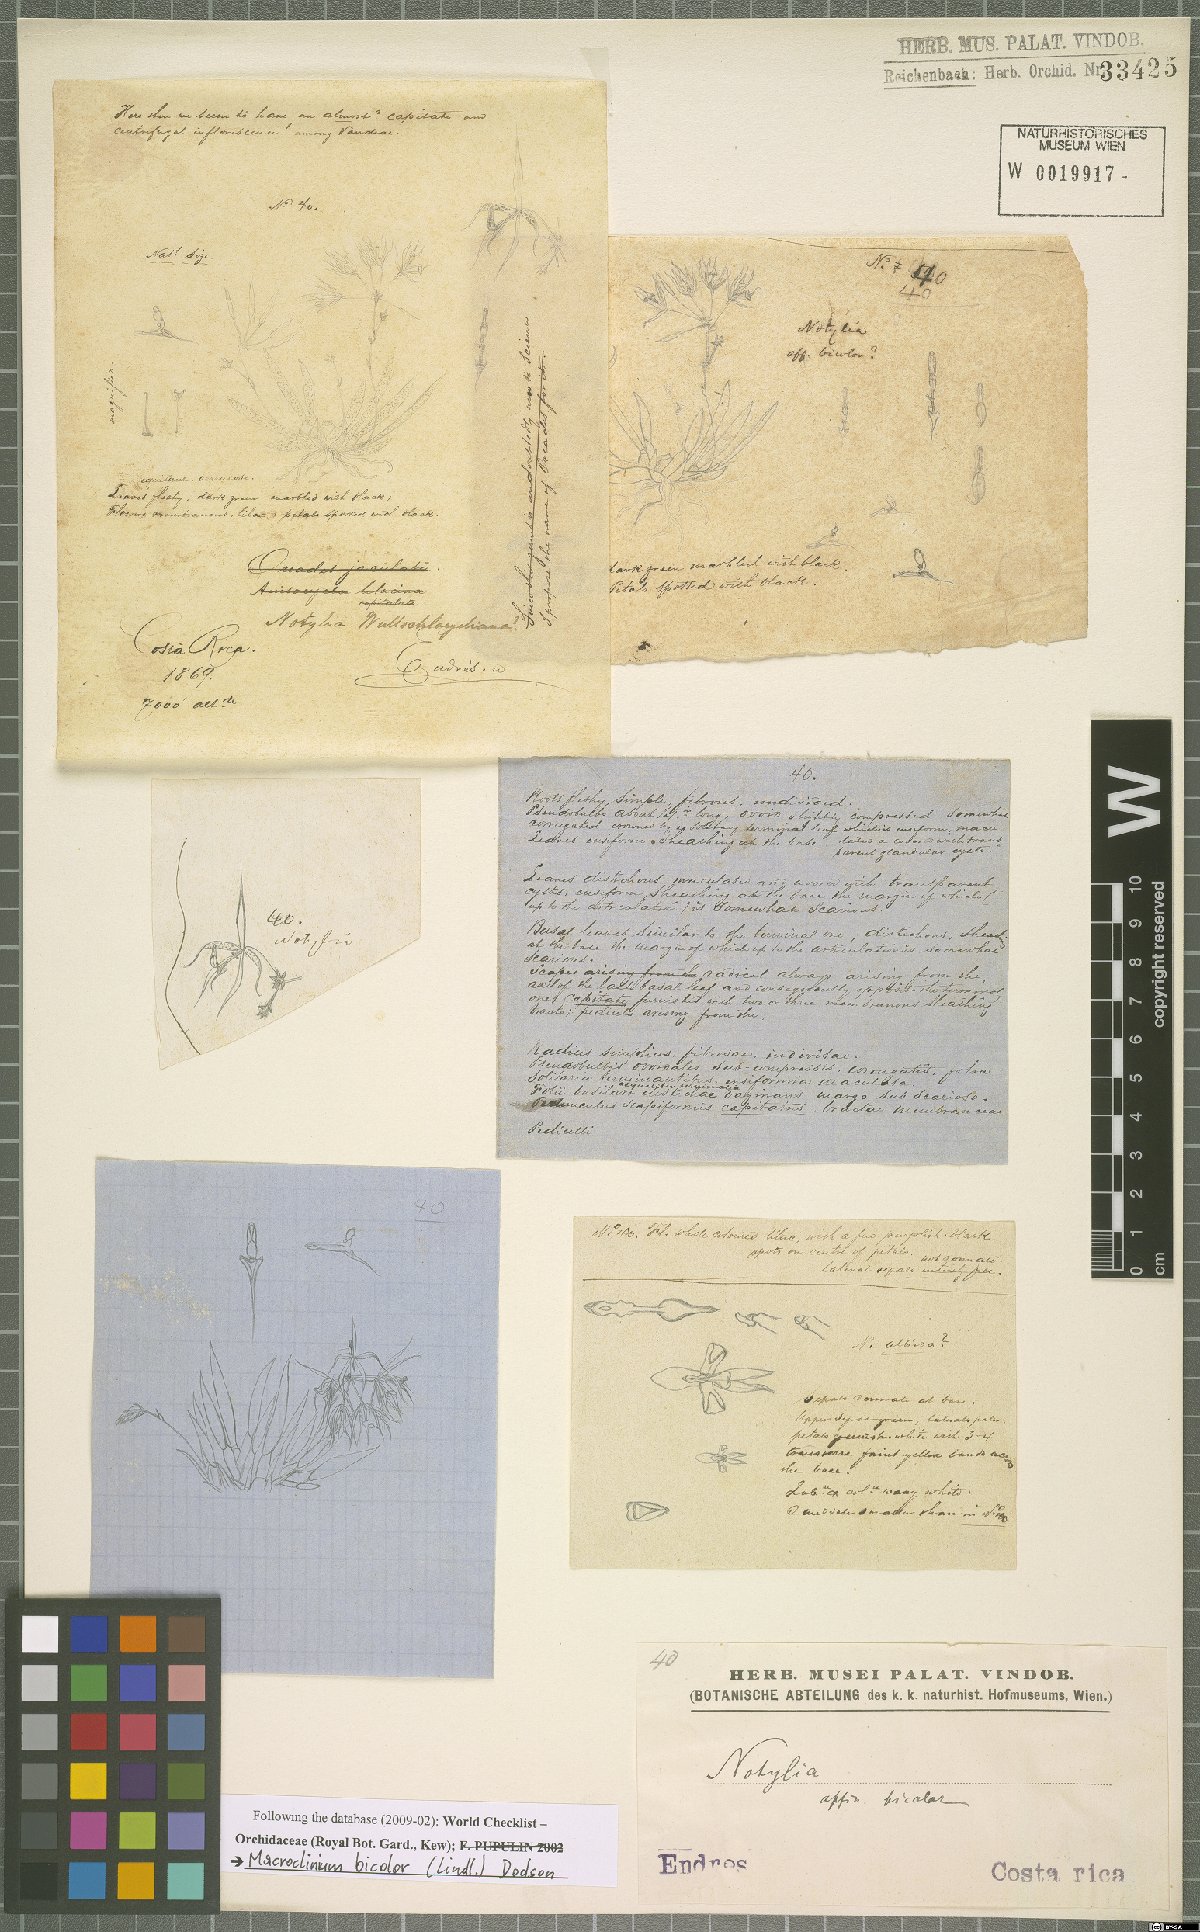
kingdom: Plantae
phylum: Tracheophyta
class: Liliopsida
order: Asparagales
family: Orchidaceae
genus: Macroclinium
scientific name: Macroclinium bicolor
